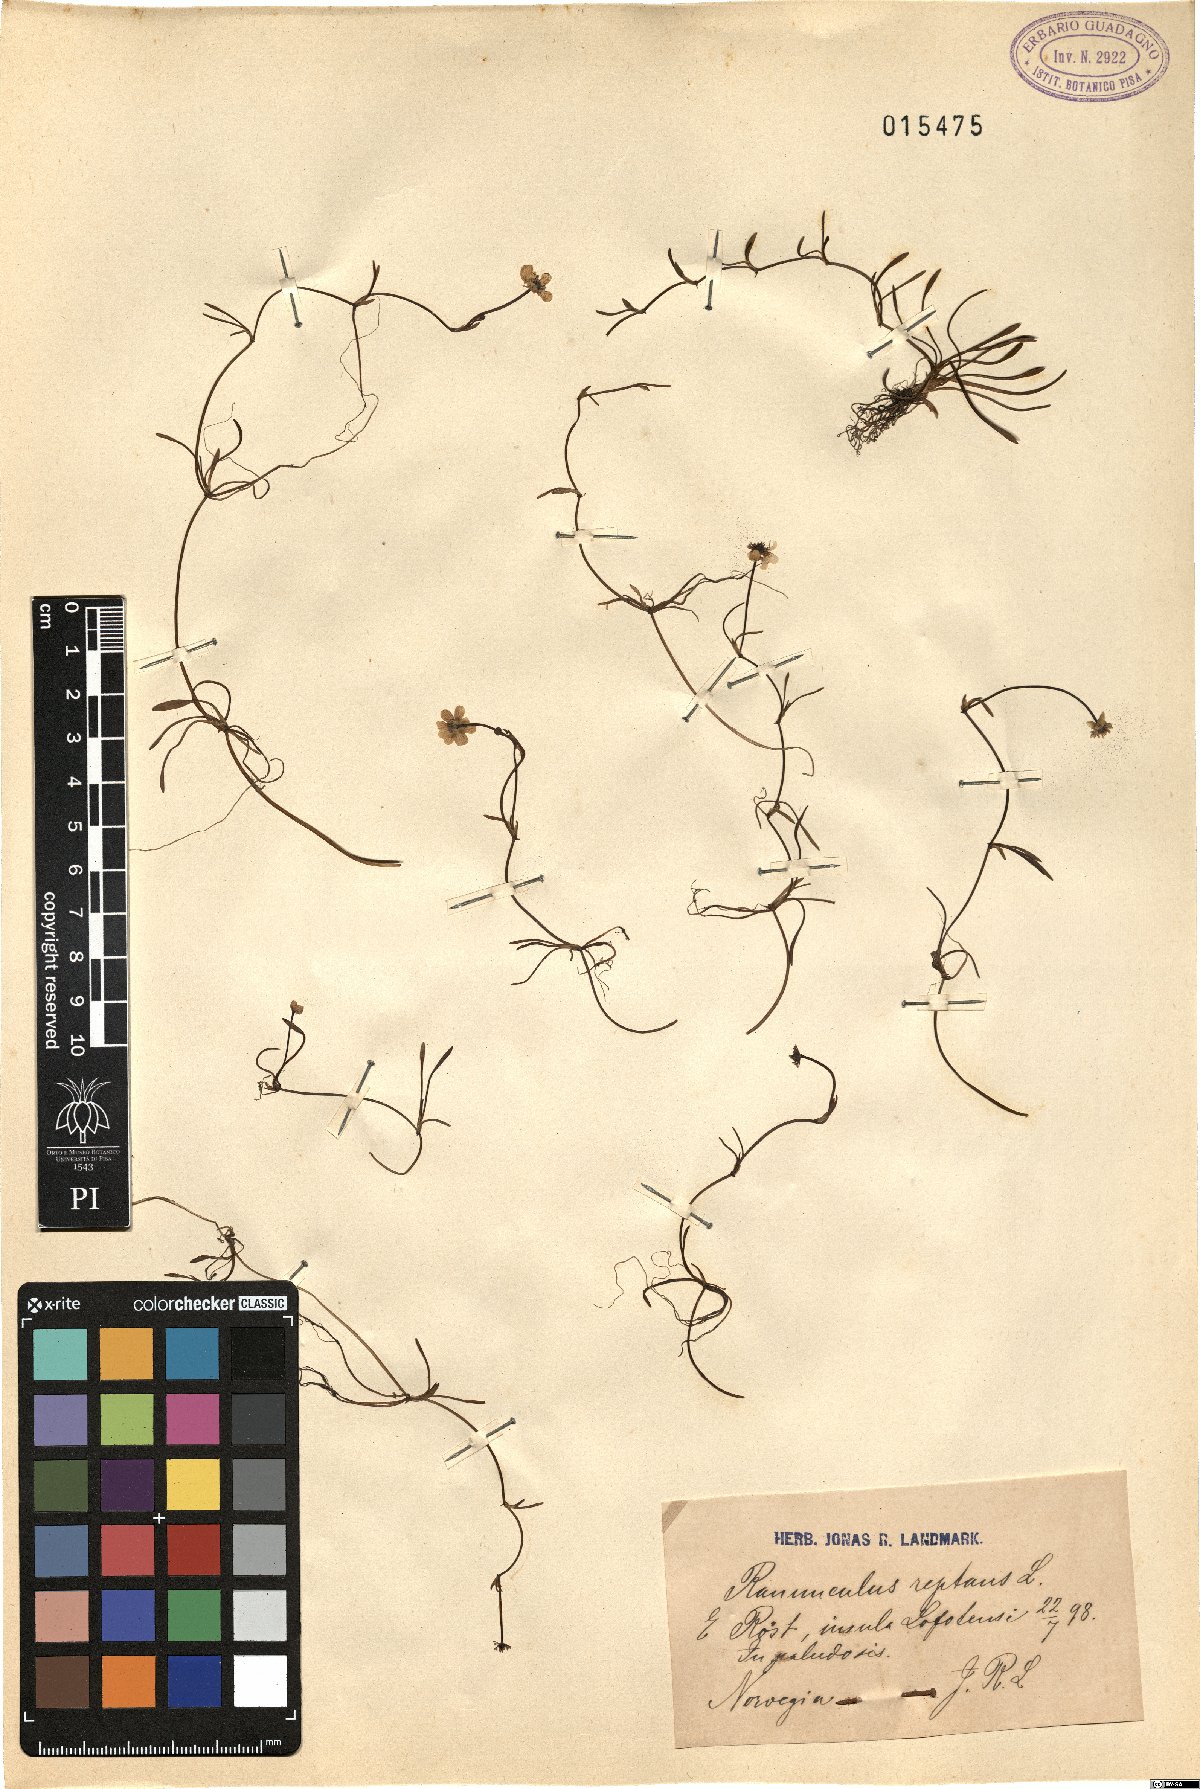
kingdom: Plantae
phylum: Tracheophyta
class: Magnoliopsida
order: Ranunculales
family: Ranunculaceae
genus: Ranunculus
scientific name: Ranunculus reptans
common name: Creeping spearwort
